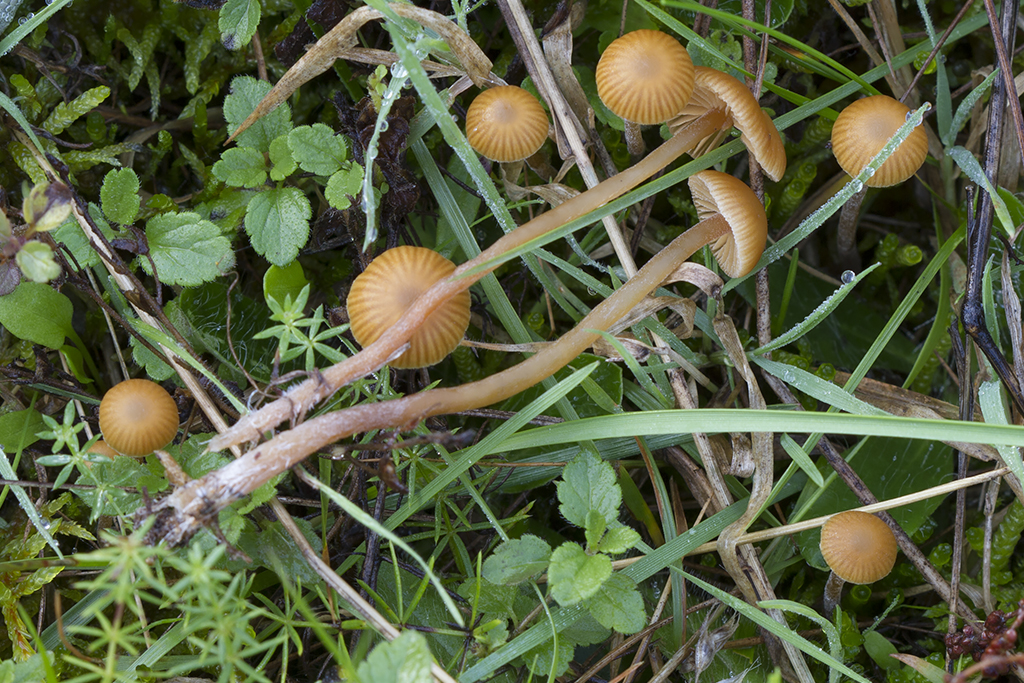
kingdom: Fungi
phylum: Basidiomycota
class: Agaricomycetes
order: Agaricales
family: Hymenogastraceae
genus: Galerina
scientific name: Galerina vittiformis
